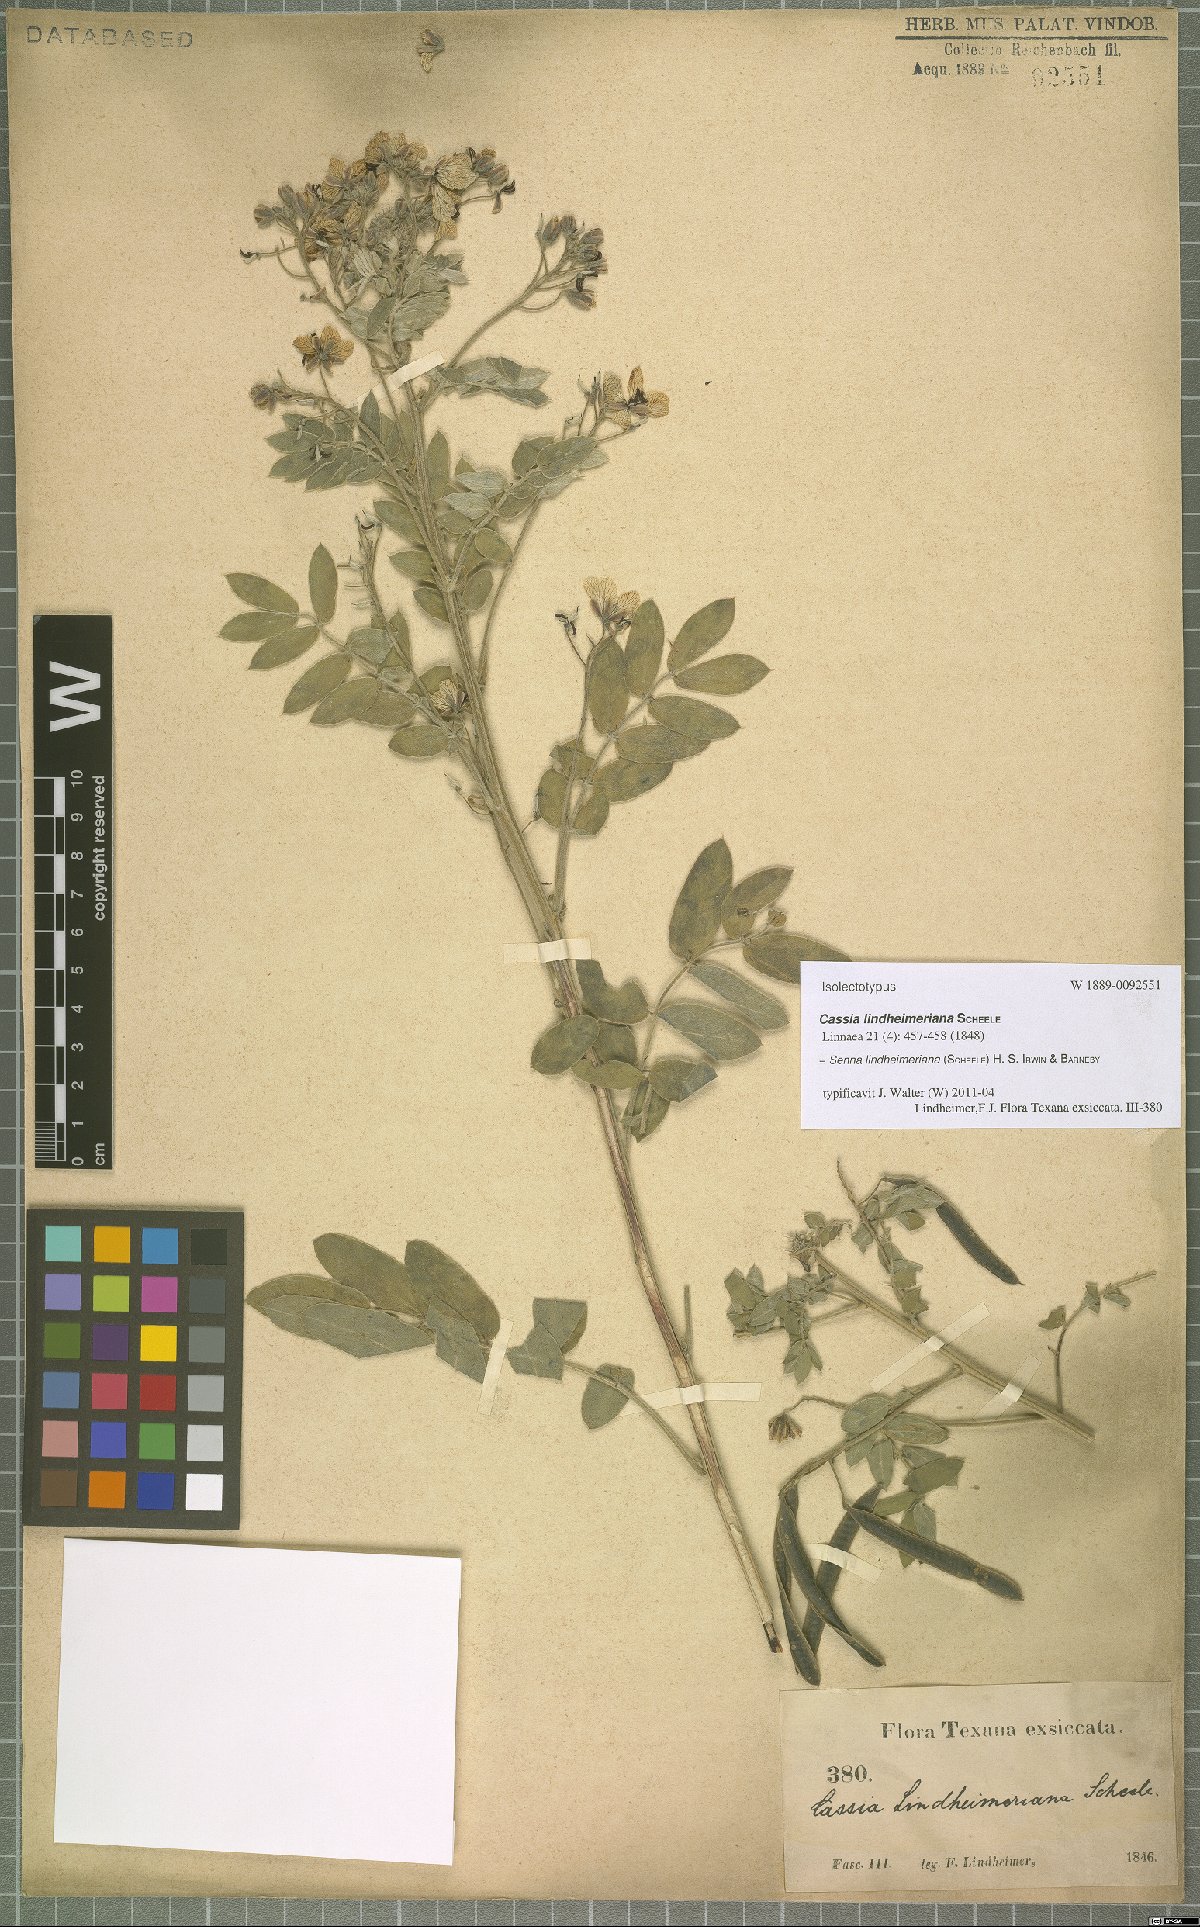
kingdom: Plantae
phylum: Tracheophyta
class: Magnoliopsida
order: Fabales
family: Fabaceae
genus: Senna
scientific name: Senna lindheimeriana
